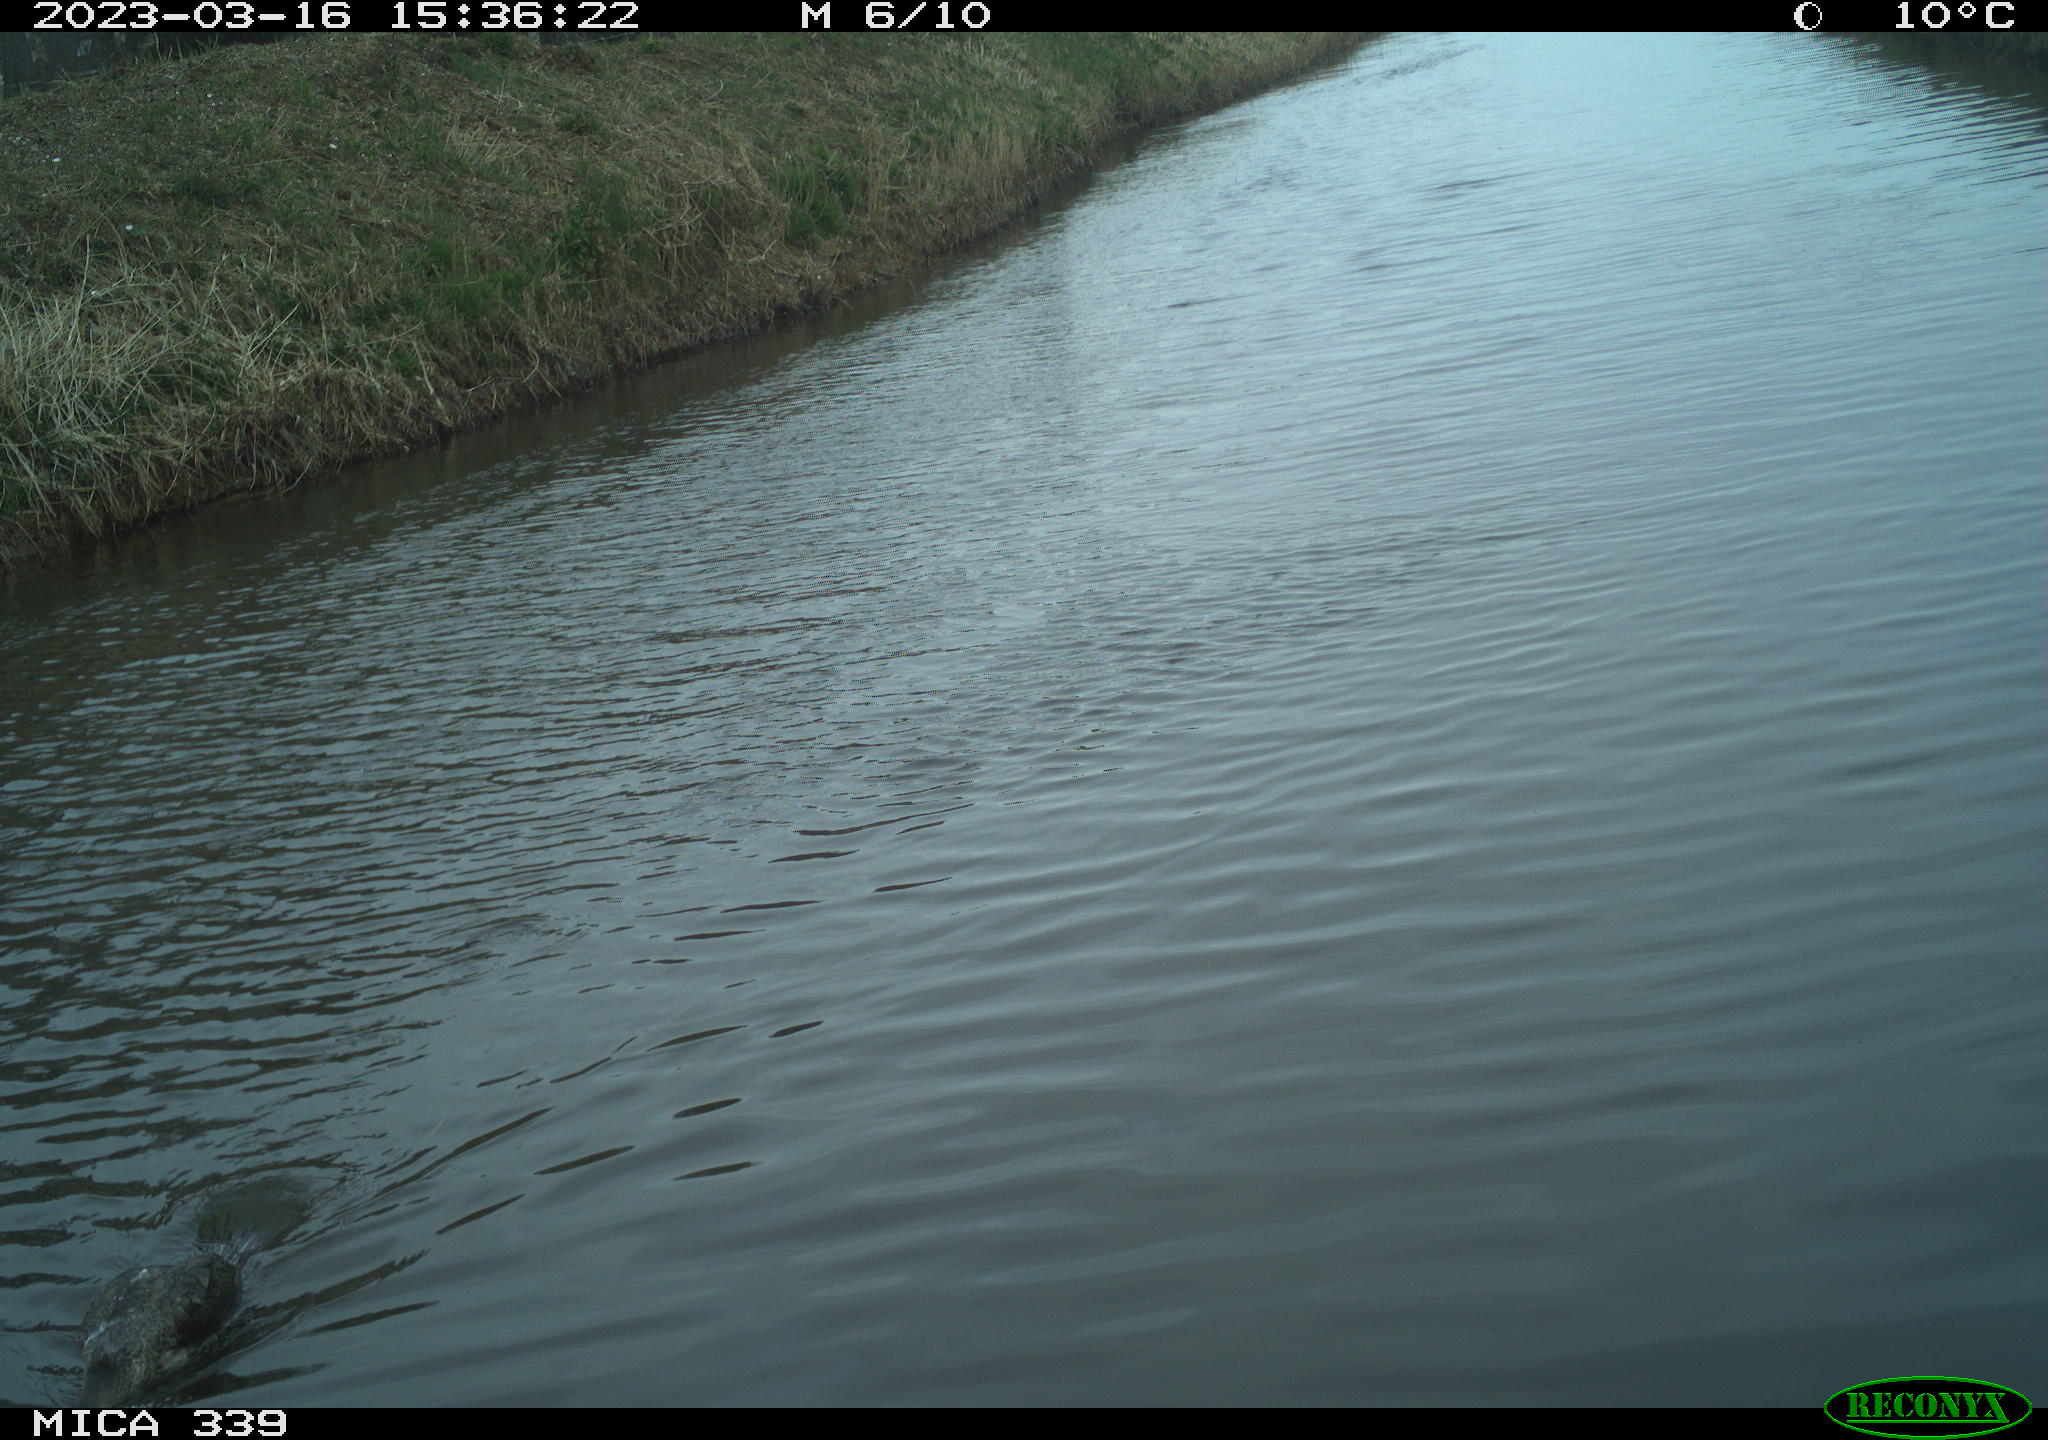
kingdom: Animalia
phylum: Chordata
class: Aves
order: Anseriformes
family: Anatidae
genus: Anas
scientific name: Anas
